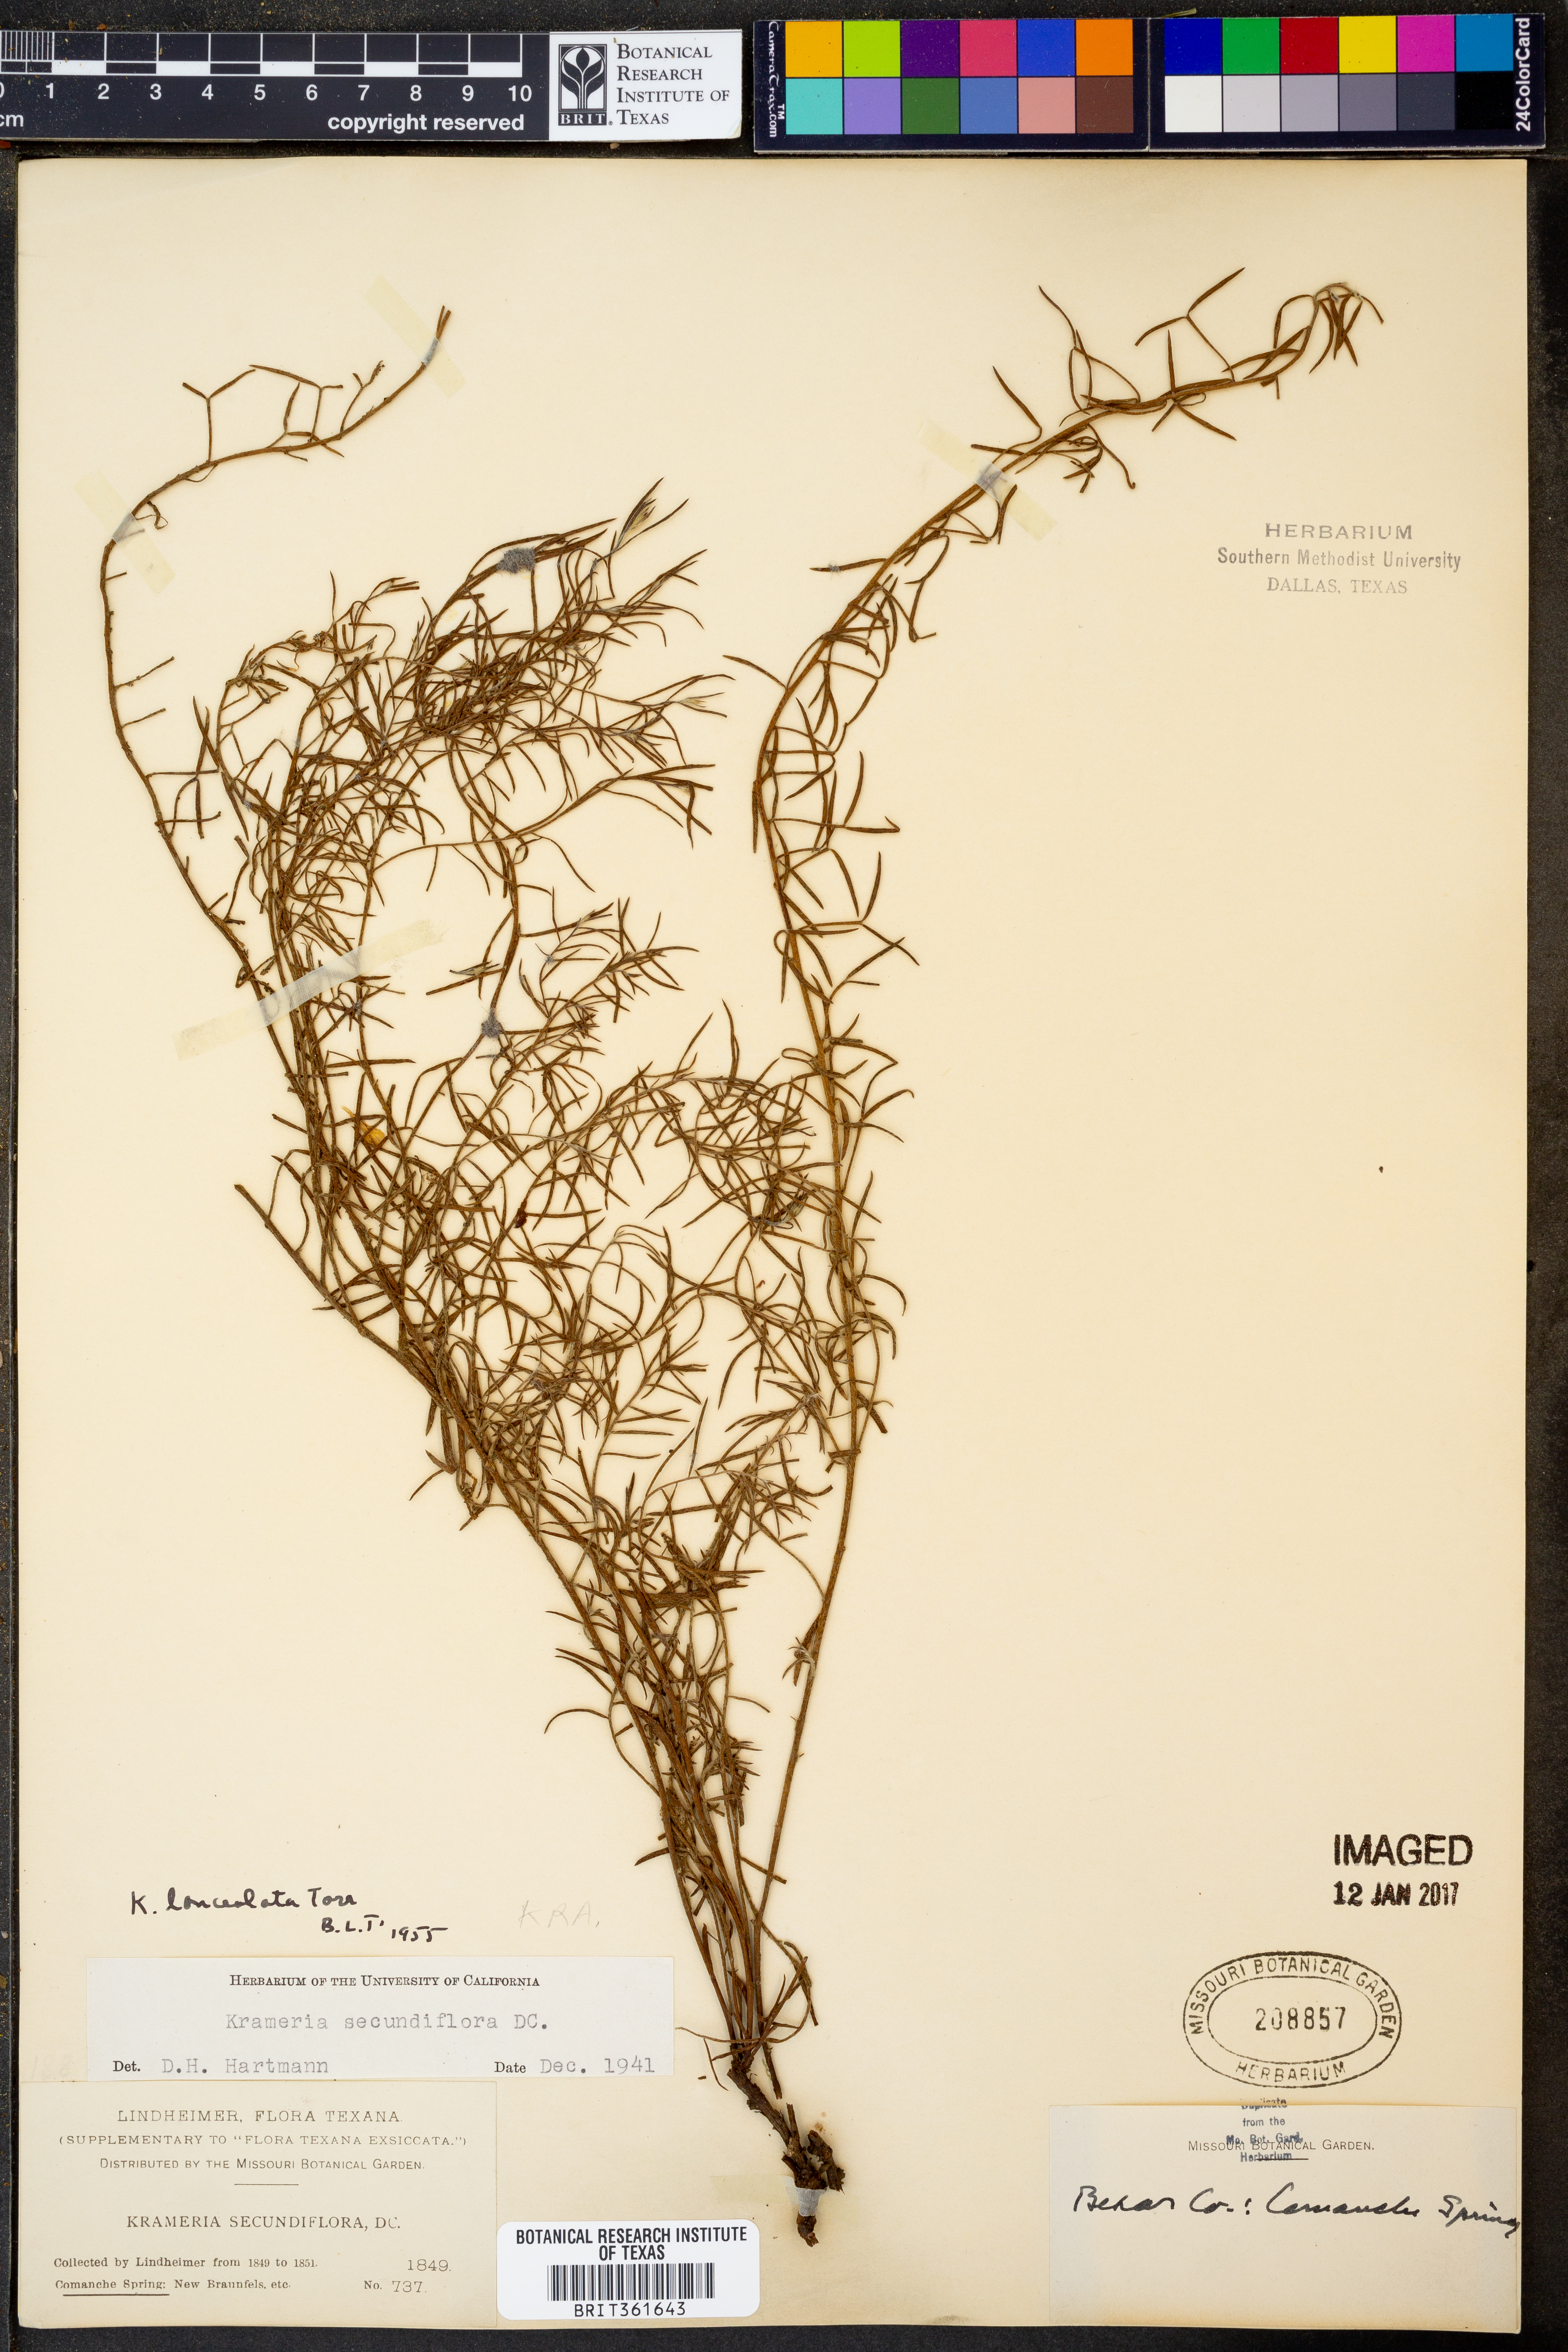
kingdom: Plantae
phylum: Tracheophyta
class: Magnoliopsida
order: Zygophyllales
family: Krameriaceae
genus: Krameria
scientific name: Krameria lanceolata
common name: Ratany
